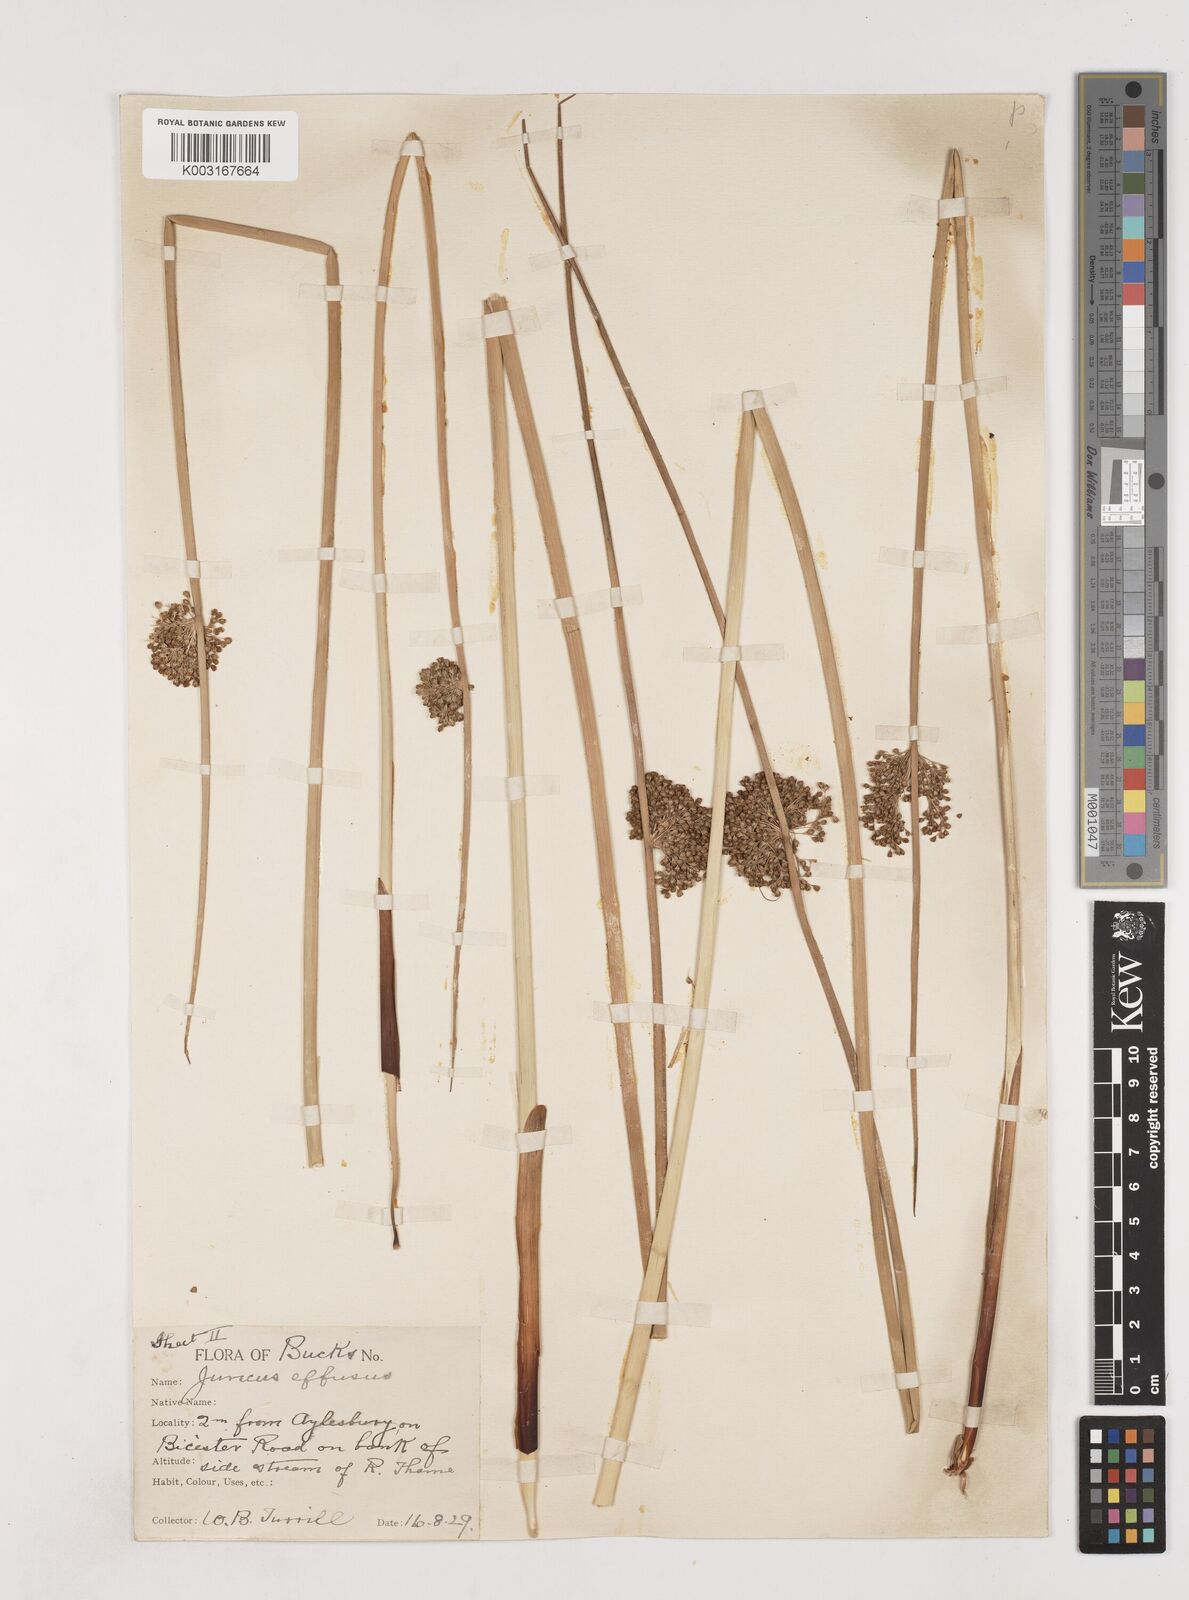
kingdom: Plantae
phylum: Tracheophyta
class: Liliopsida
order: Poales
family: Juncaceae
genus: Juncus
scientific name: Juncus effusus
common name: Soft rush
